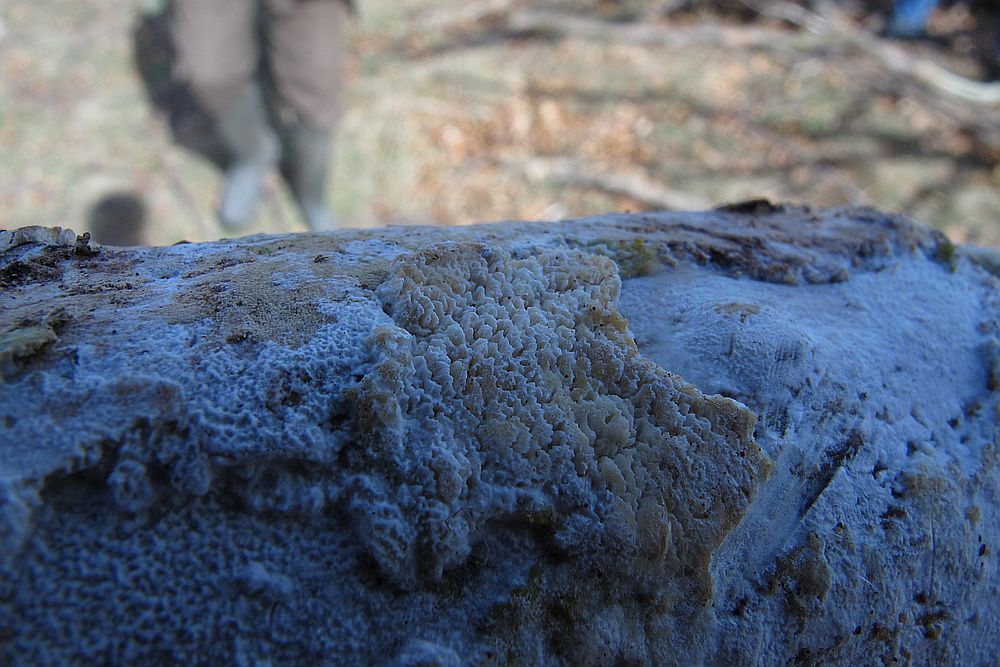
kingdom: Fungi
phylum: Basidiomycota
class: Agaricomycetes
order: Hymenochaetales
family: Schizoporaceae
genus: Xylodon
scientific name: Xylodon subtropicus
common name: labyrint-tandsvamp
